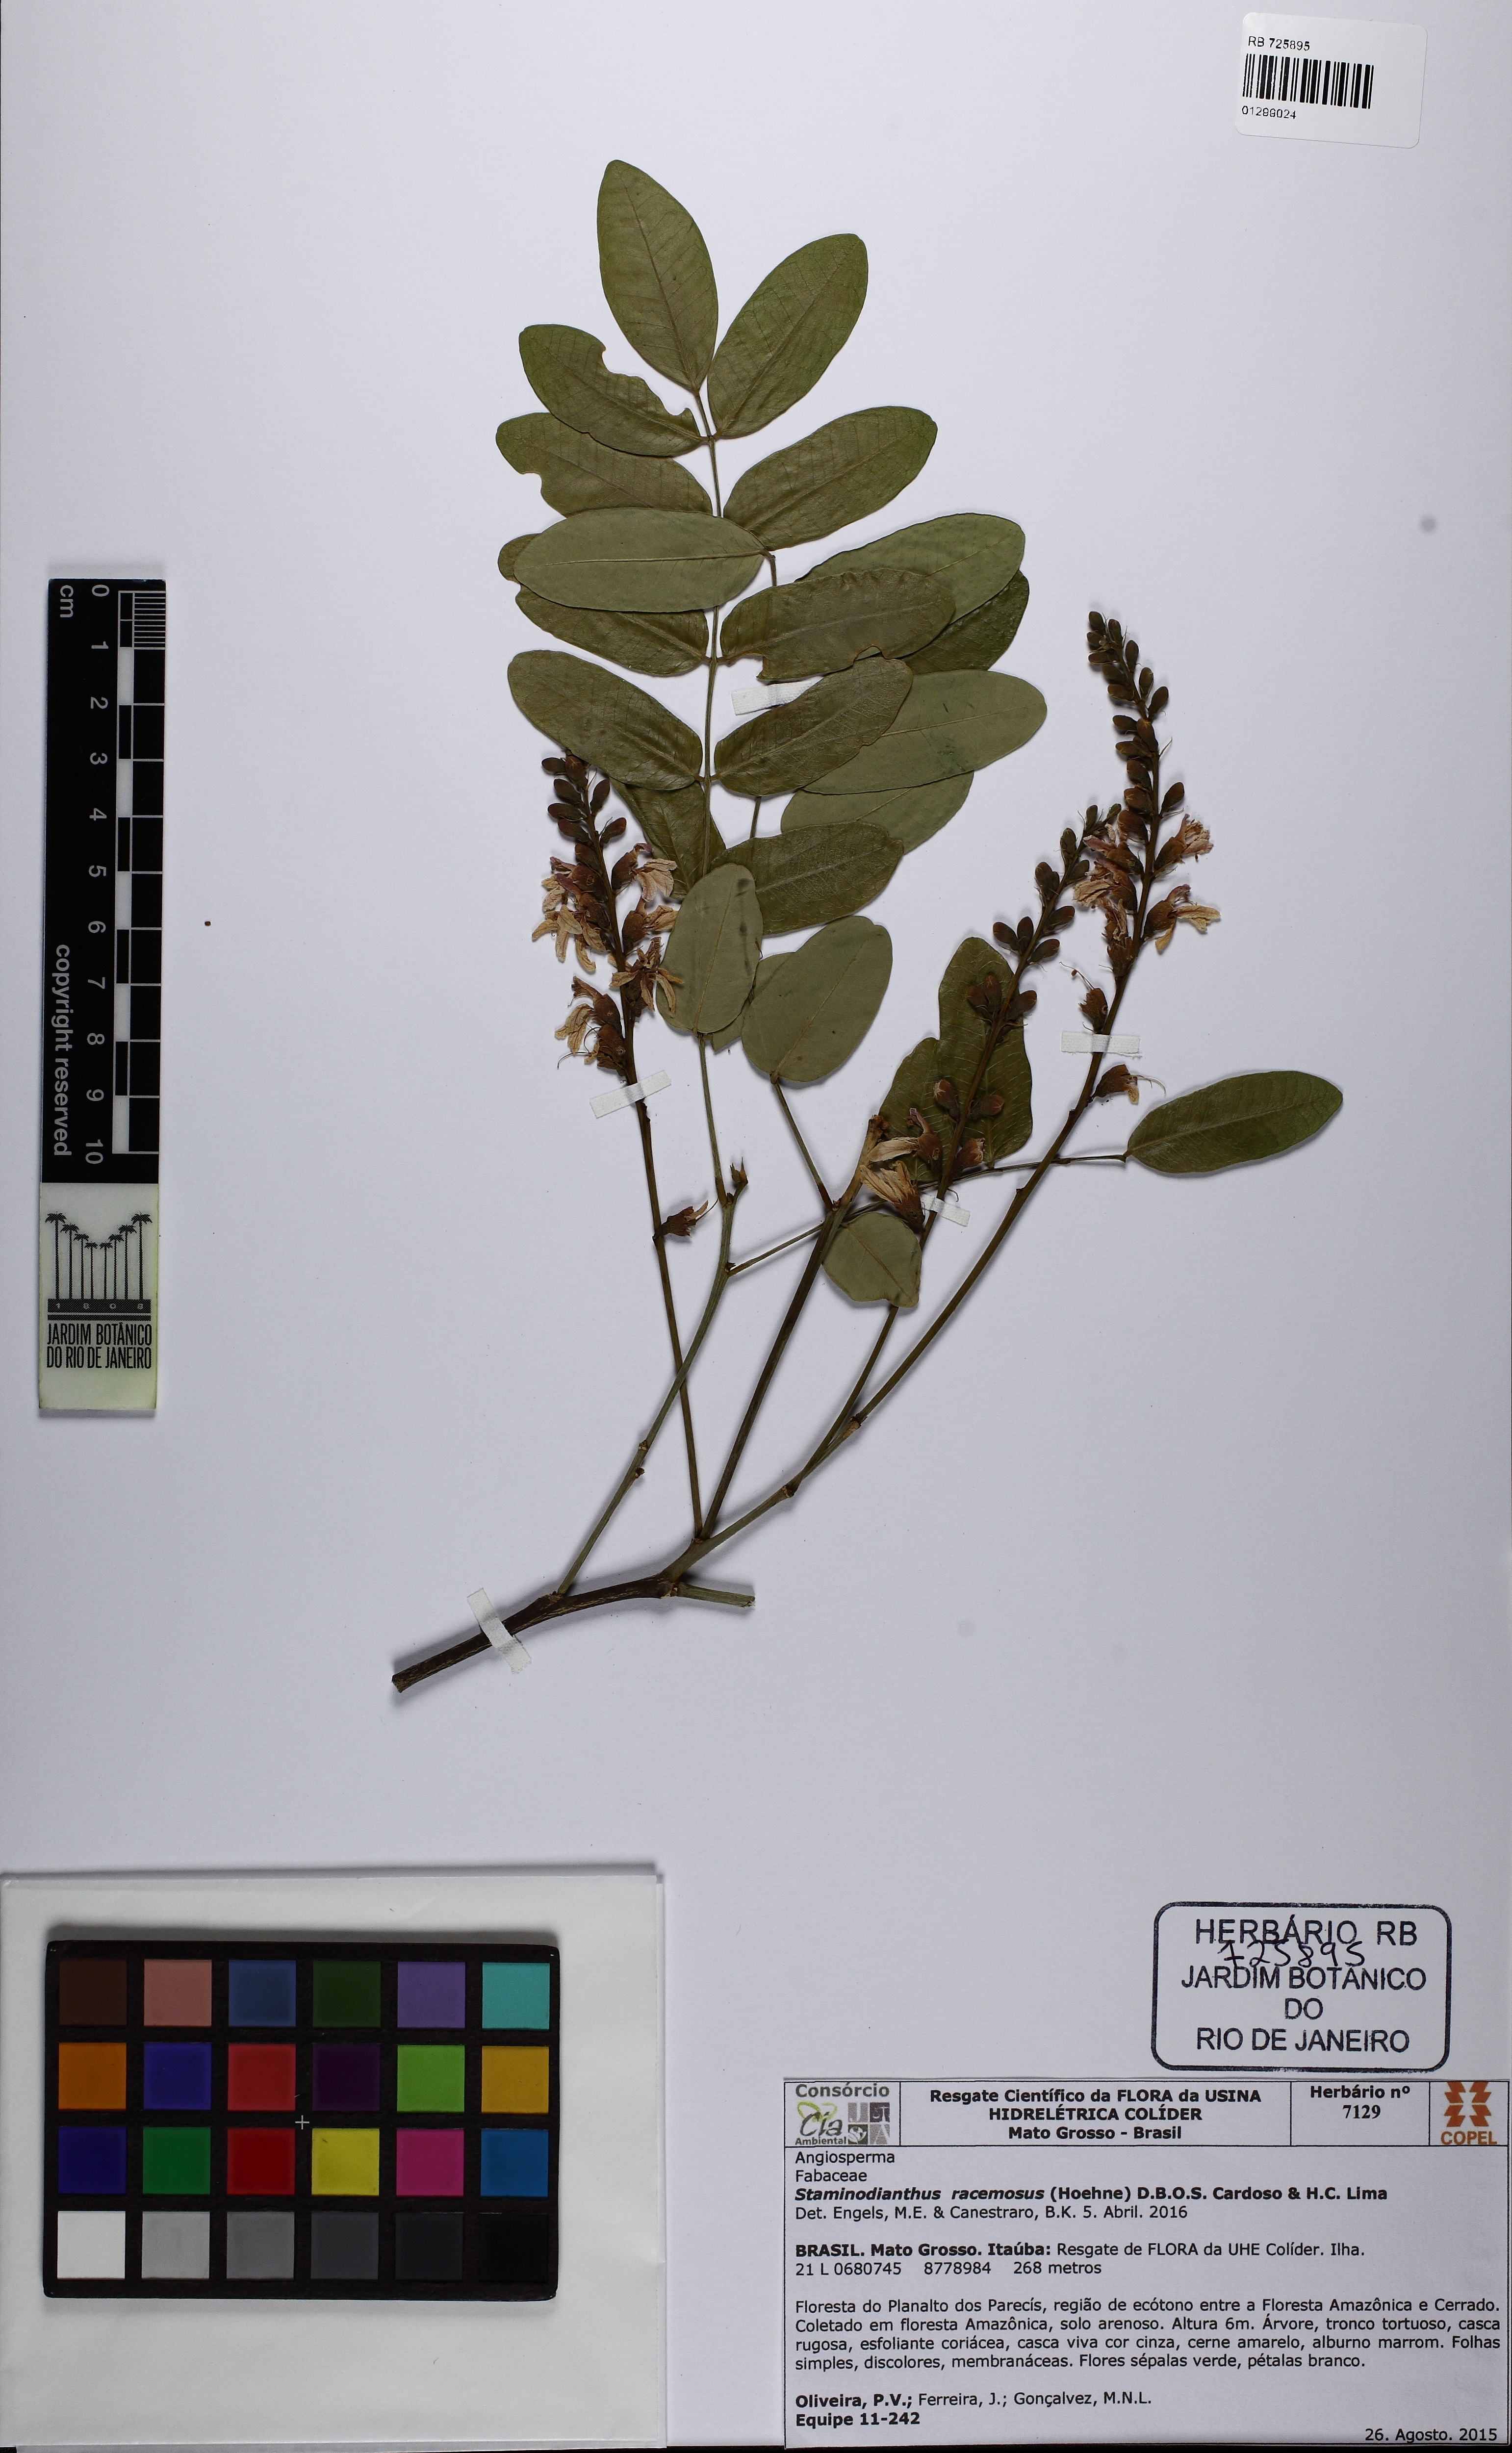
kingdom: Plantae
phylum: Tracheophyta
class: Magnoliopsida
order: Fabales
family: Fabaceae
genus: Staminodianthus
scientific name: Staminodianthus racemosus
